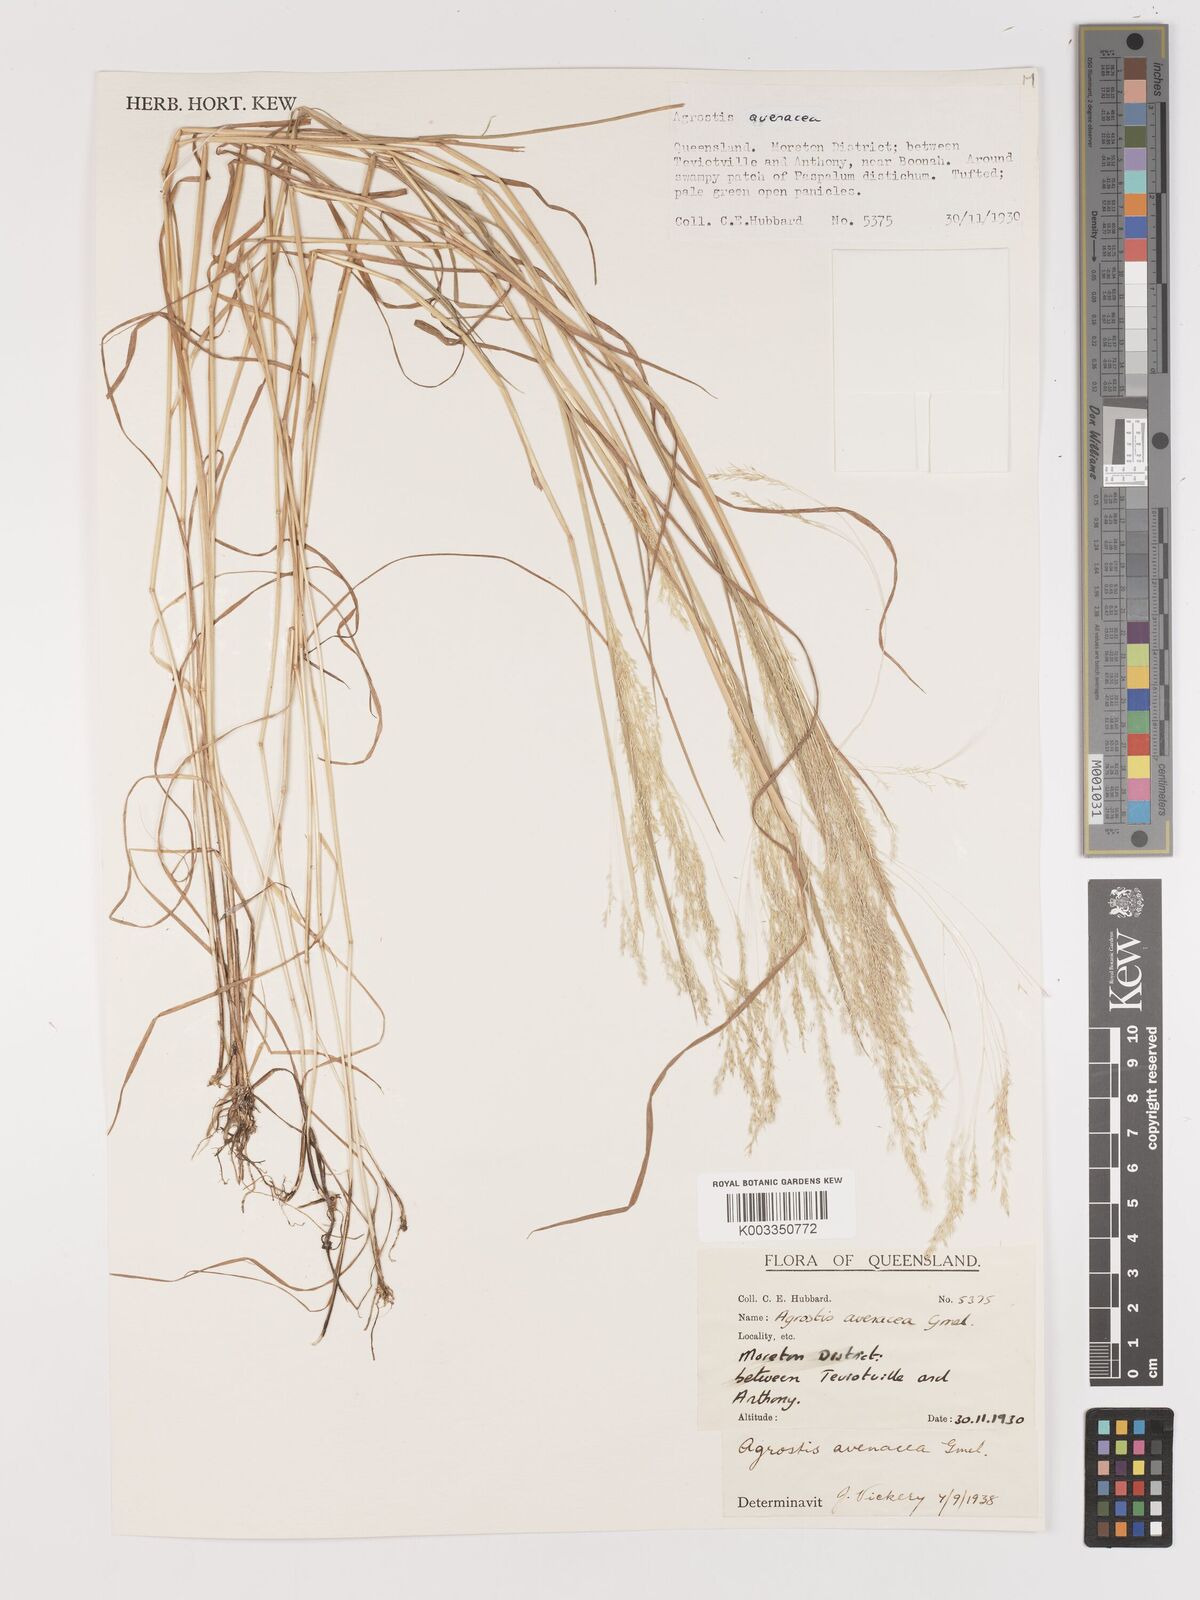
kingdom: Plantae
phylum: Tracheophyta
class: Liliopsida
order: Poales
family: Poaceae
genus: Lachnagrostis
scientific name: Lachnagrostis filiformis
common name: Bentgrass
